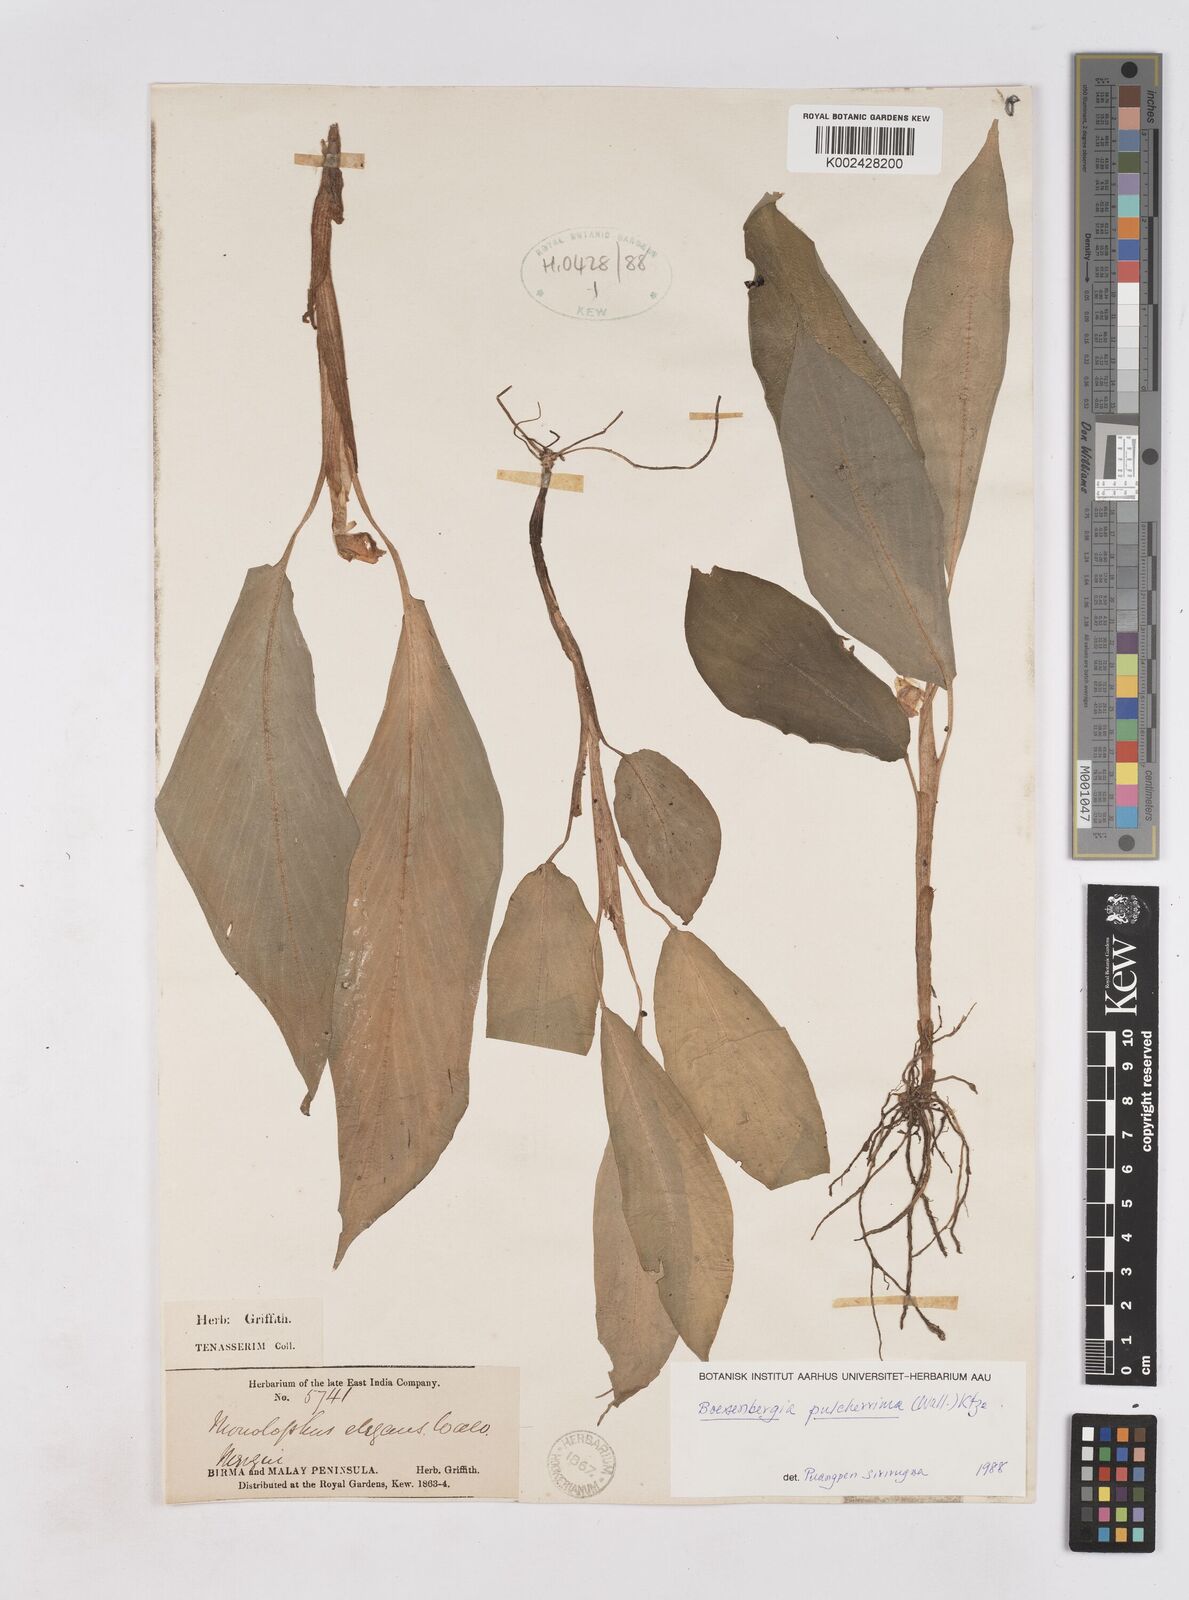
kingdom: Plantae
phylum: Tracheophyta
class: Liliopsida
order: Zingiberales
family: Zingiberaceae
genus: Boesenbergia
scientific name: Boesenbergia pulcherrima
